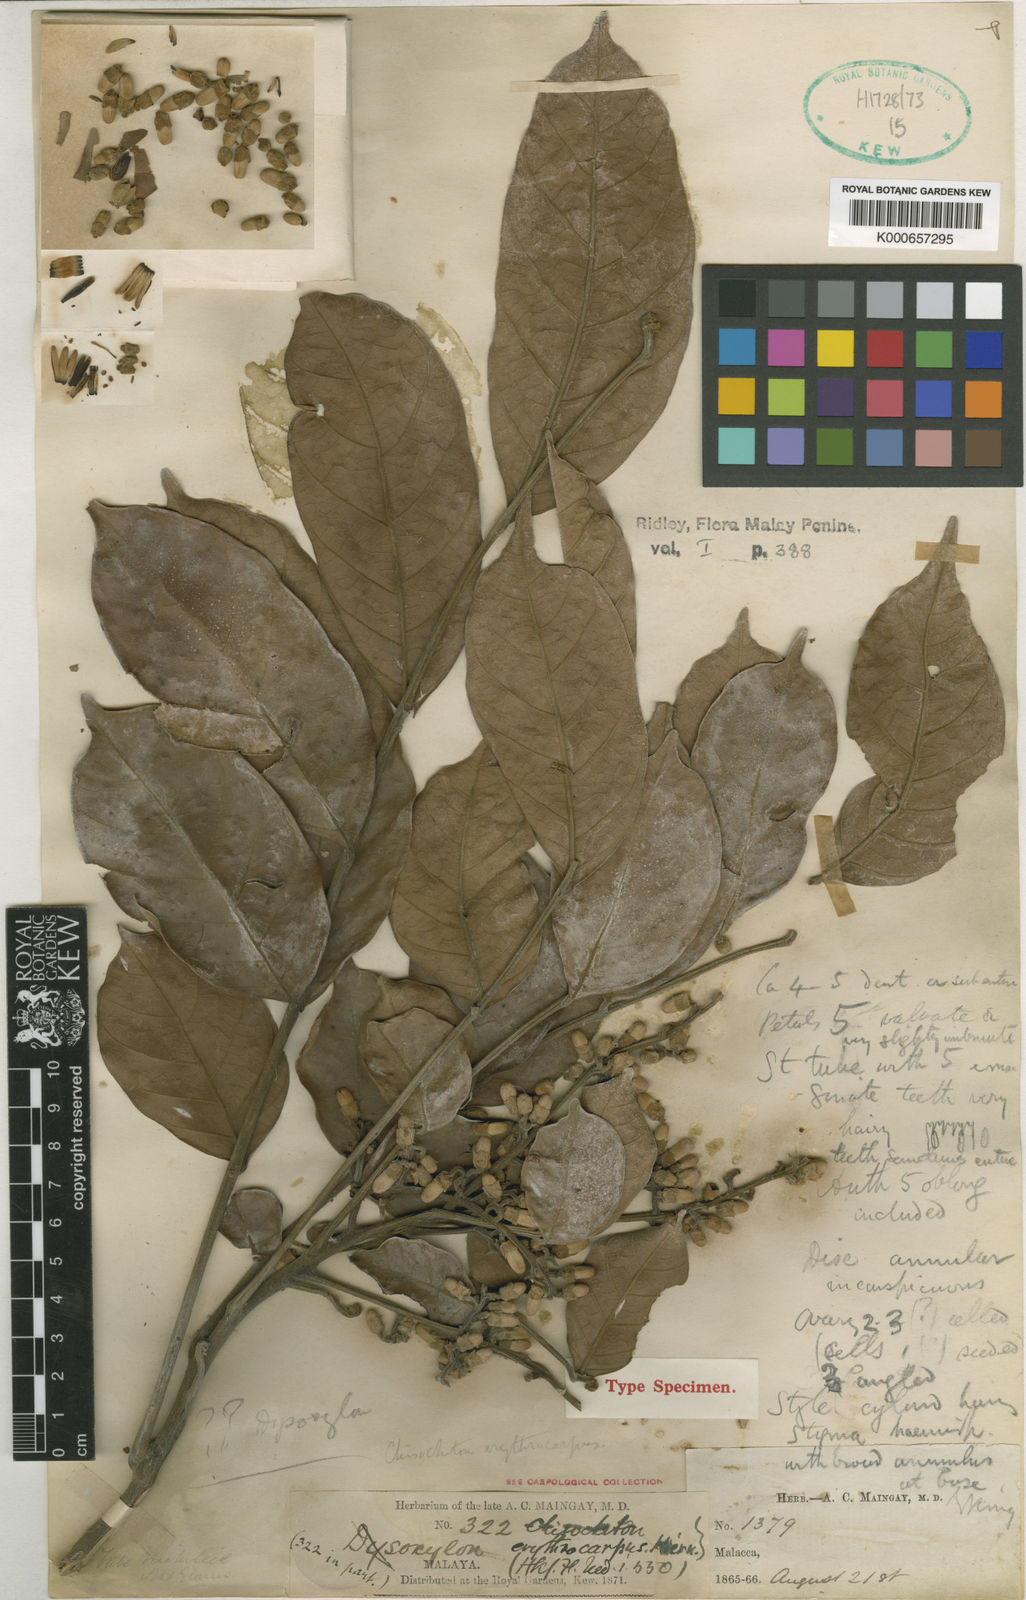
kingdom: Plantae
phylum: Tracheophyta
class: Magnoliopsida
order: Sapindales
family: Meliaceae
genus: Chisocheton
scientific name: Chisocheton erythrocarpus
